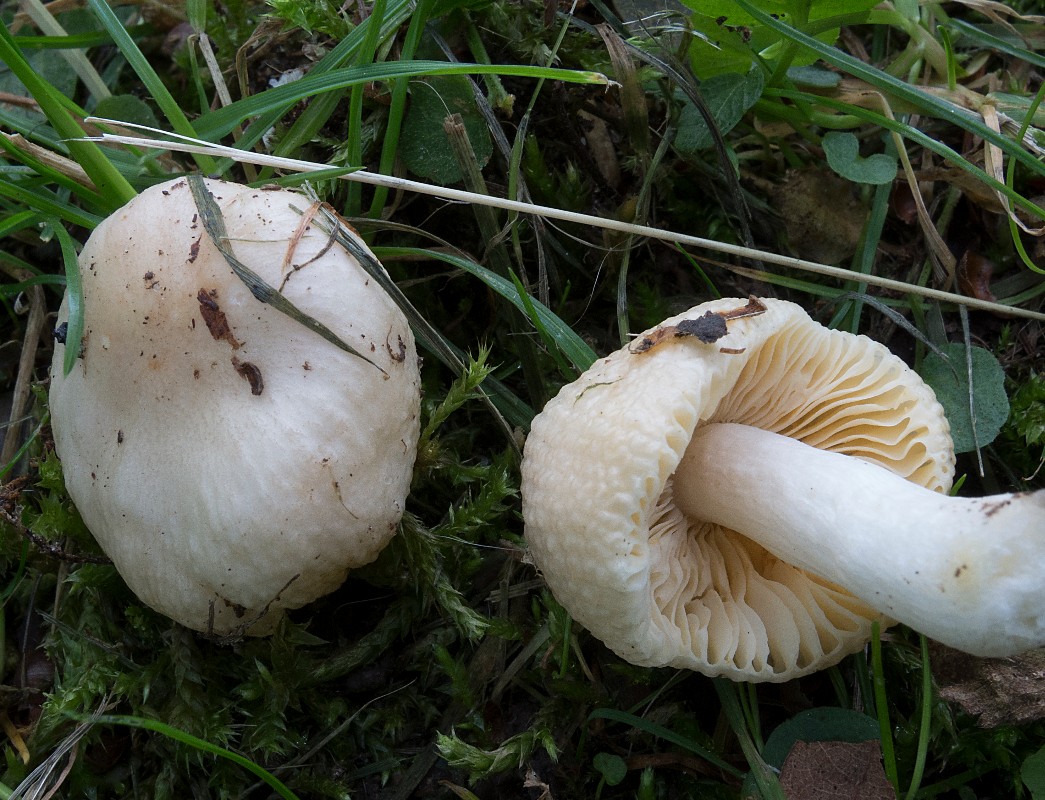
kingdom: Fungi
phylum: Basidiomycota
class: Agaricomycetes
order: Russulales
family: Russulaceae
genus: Russula
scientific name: Russula odorata
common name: duft-skørhat
